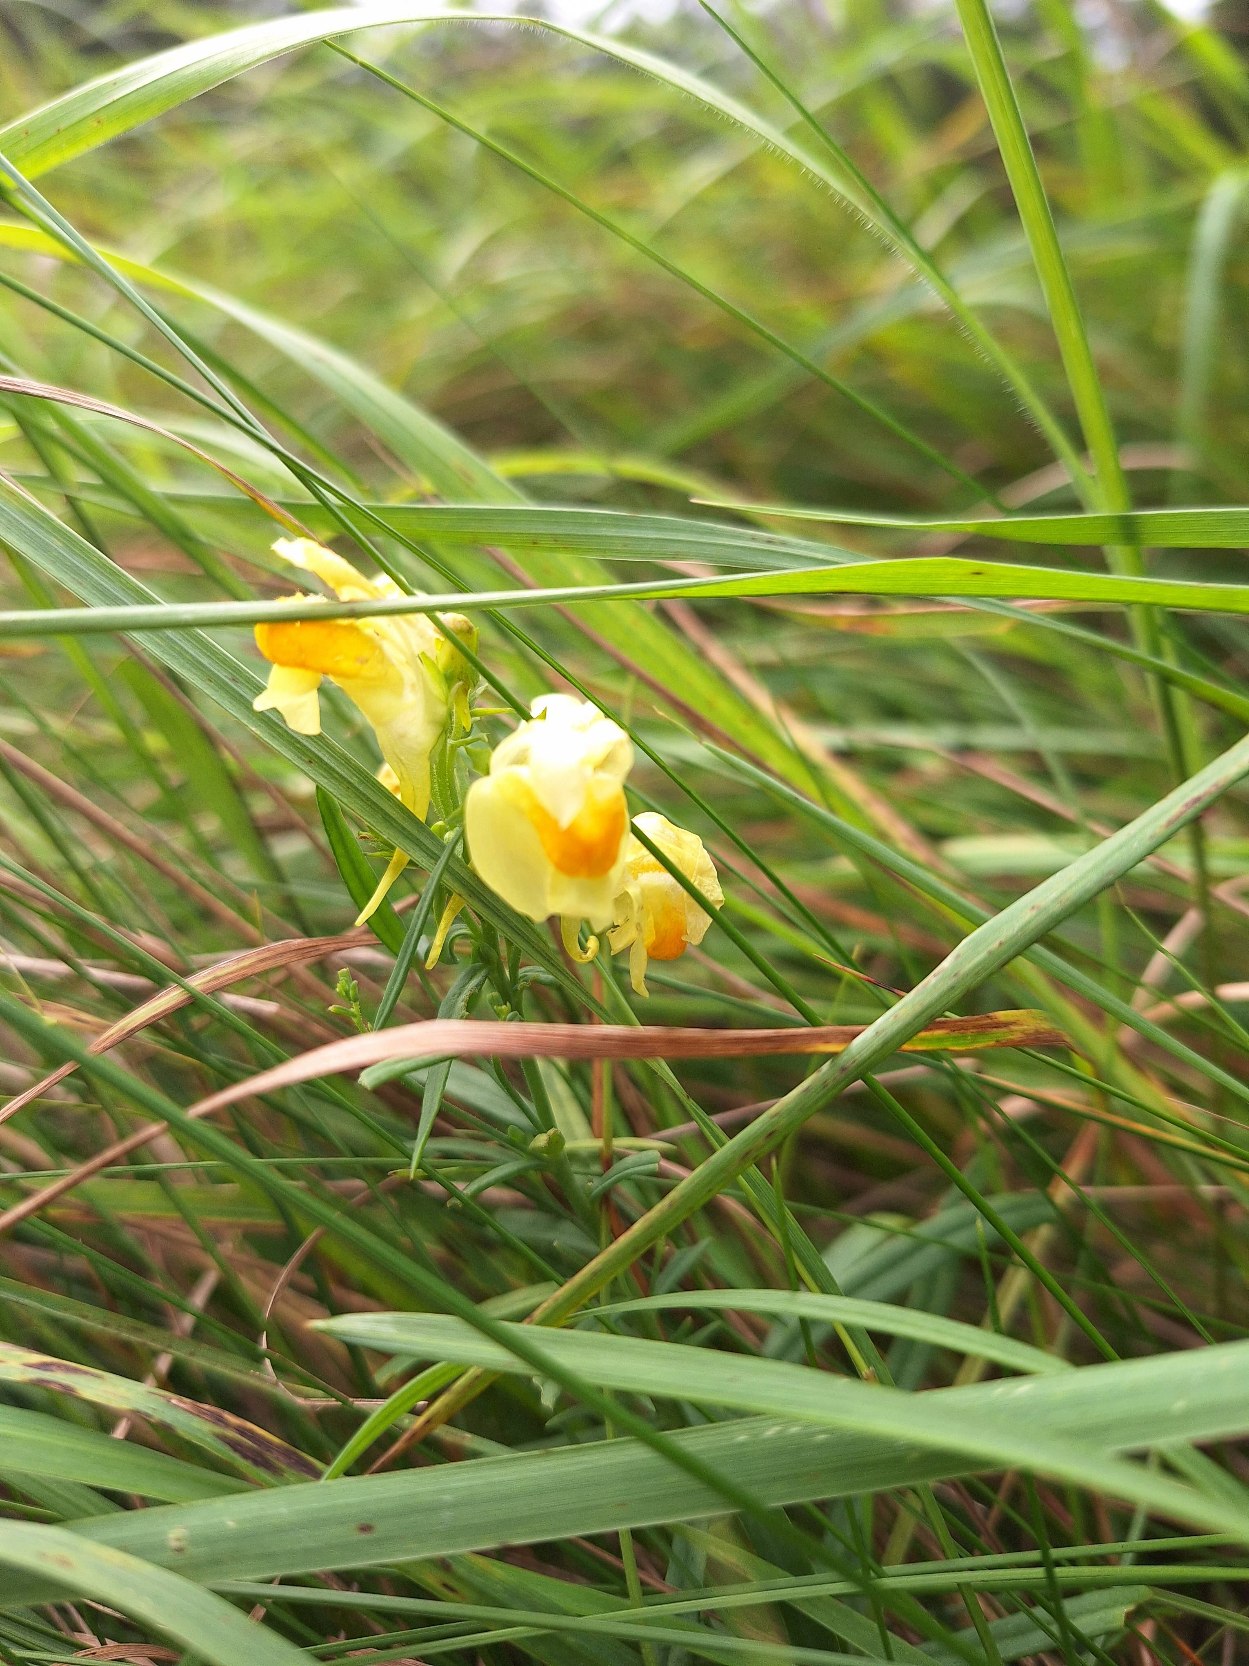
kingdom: Plantae
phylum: Tracheophyta
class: Magnoliopsida
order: Lamiales
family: Plantaginaceae
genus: Linaria
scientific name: Linaria vulgaris
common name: Almindelig torskemund
